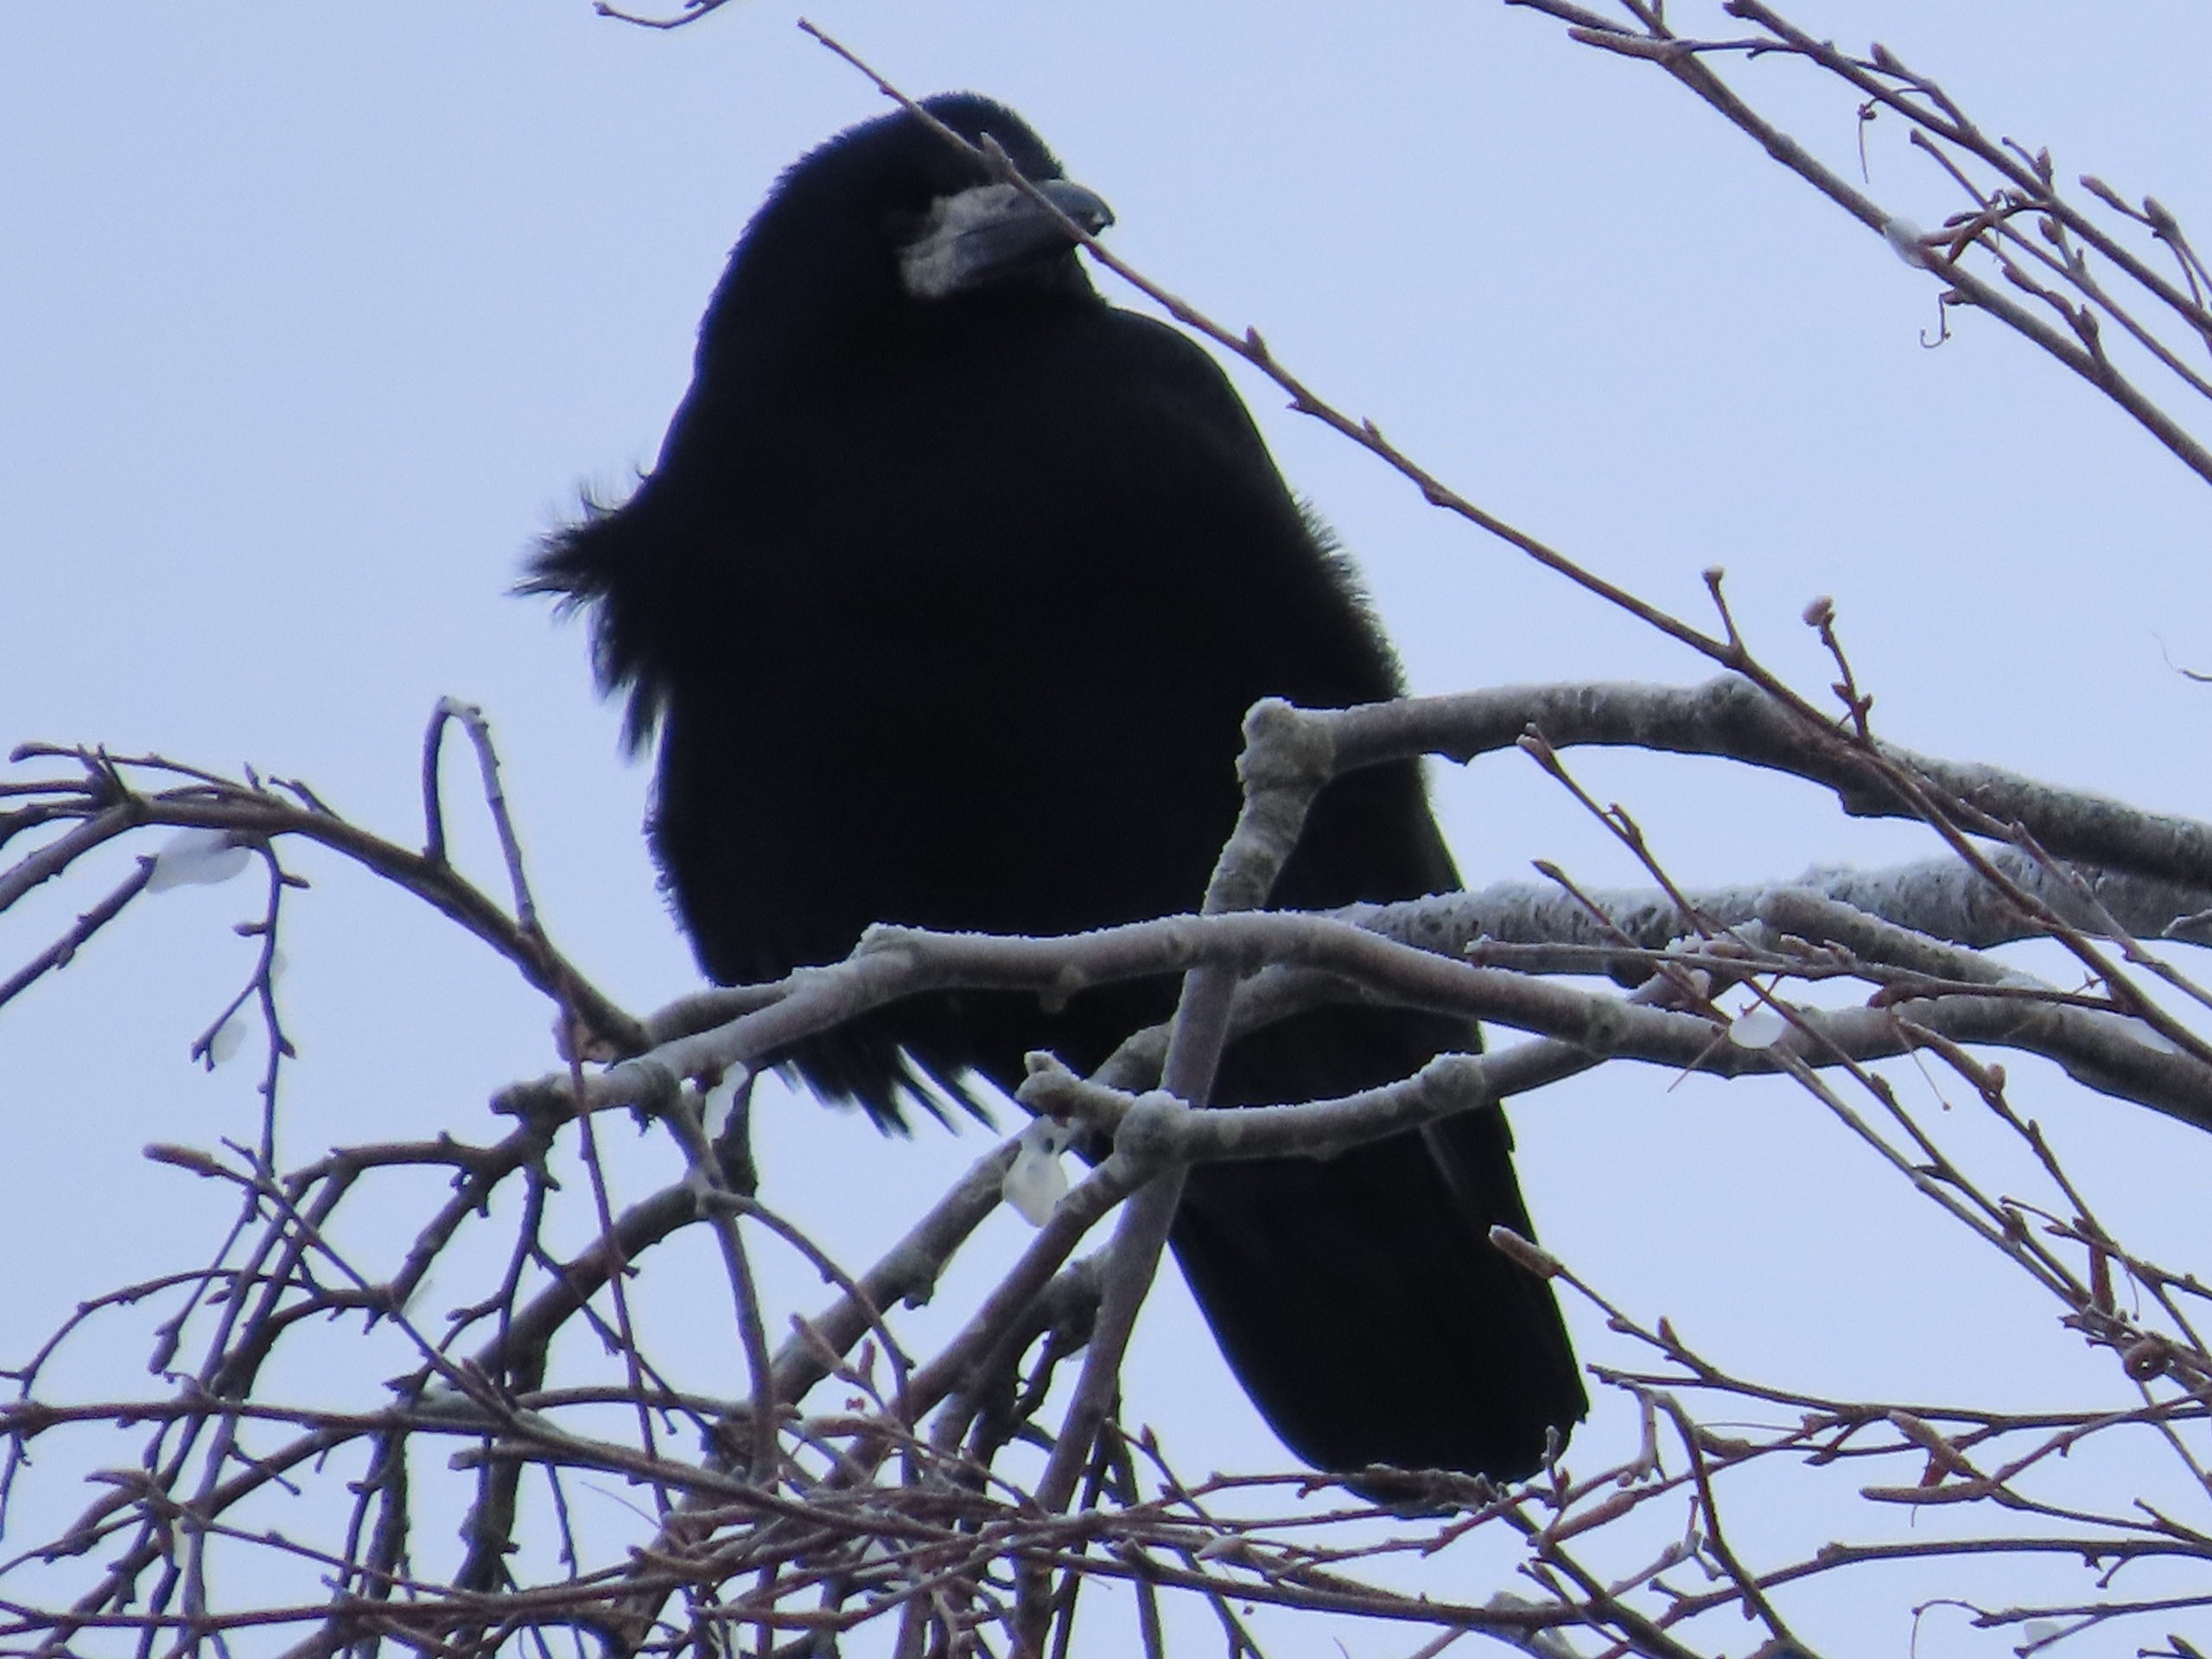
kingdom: Animalia
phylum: Chordata
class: Aves
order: Passeriformes
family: Corvidae
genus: Corvus
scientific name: Corvus frugilegus
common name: Råge
